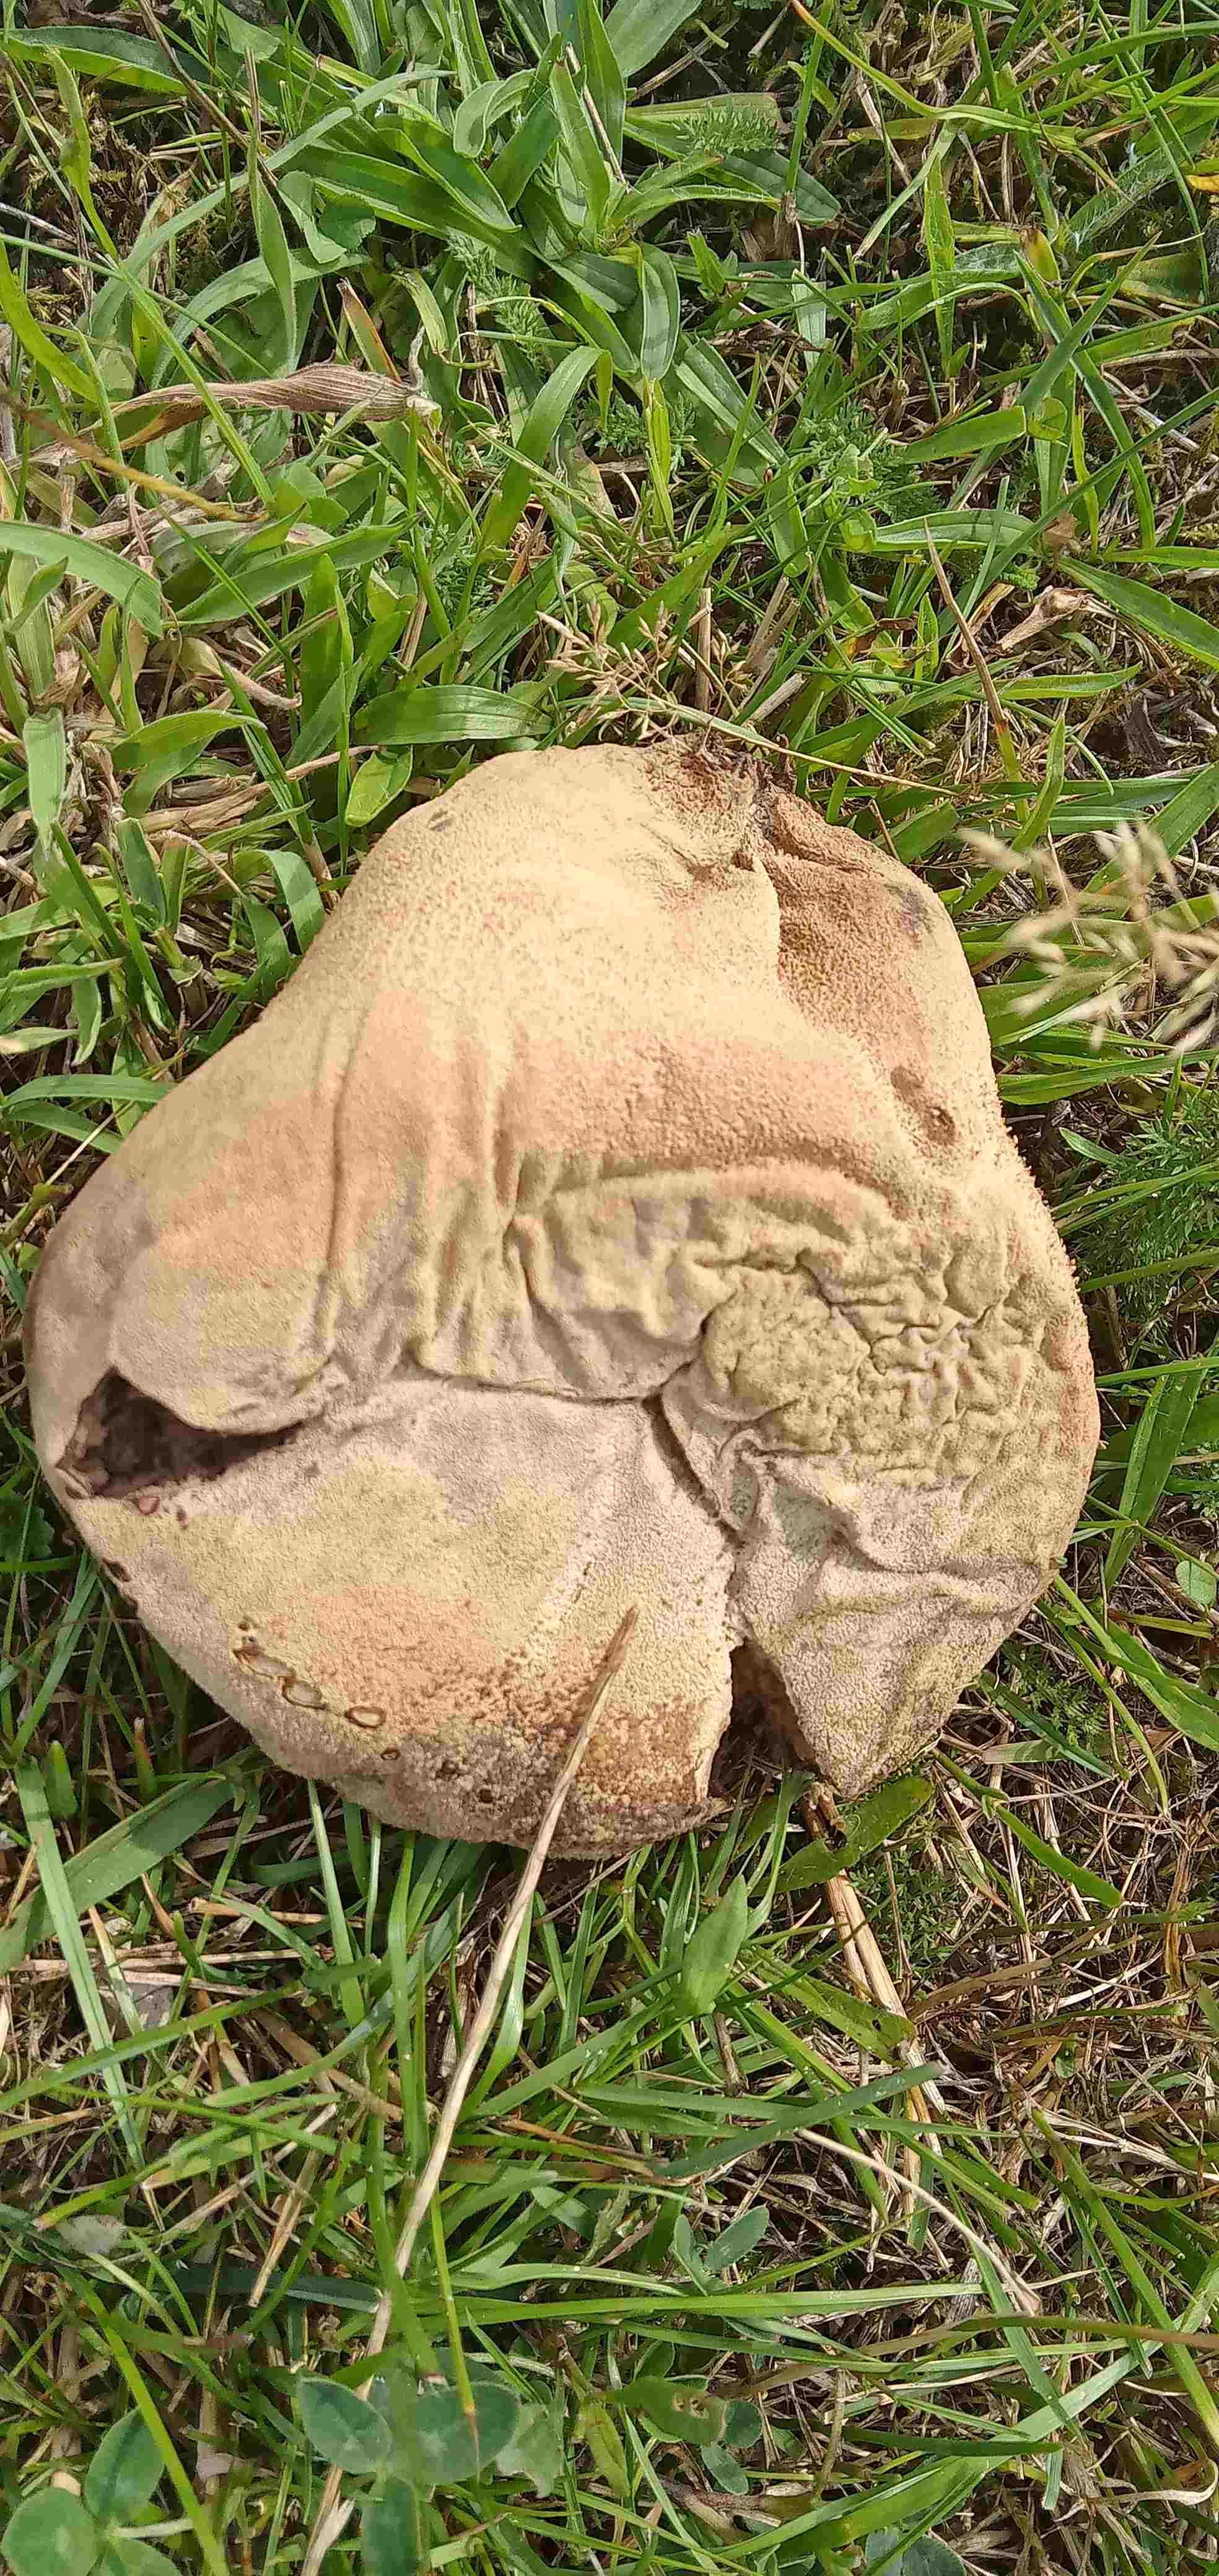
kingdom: Fungi
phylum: Basidiomycota
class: Agaricomycetes
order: Agaricales
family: Lycoperdaceae
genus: Bovistella
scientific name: Bovistella utriformis
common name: skællet støvbold
